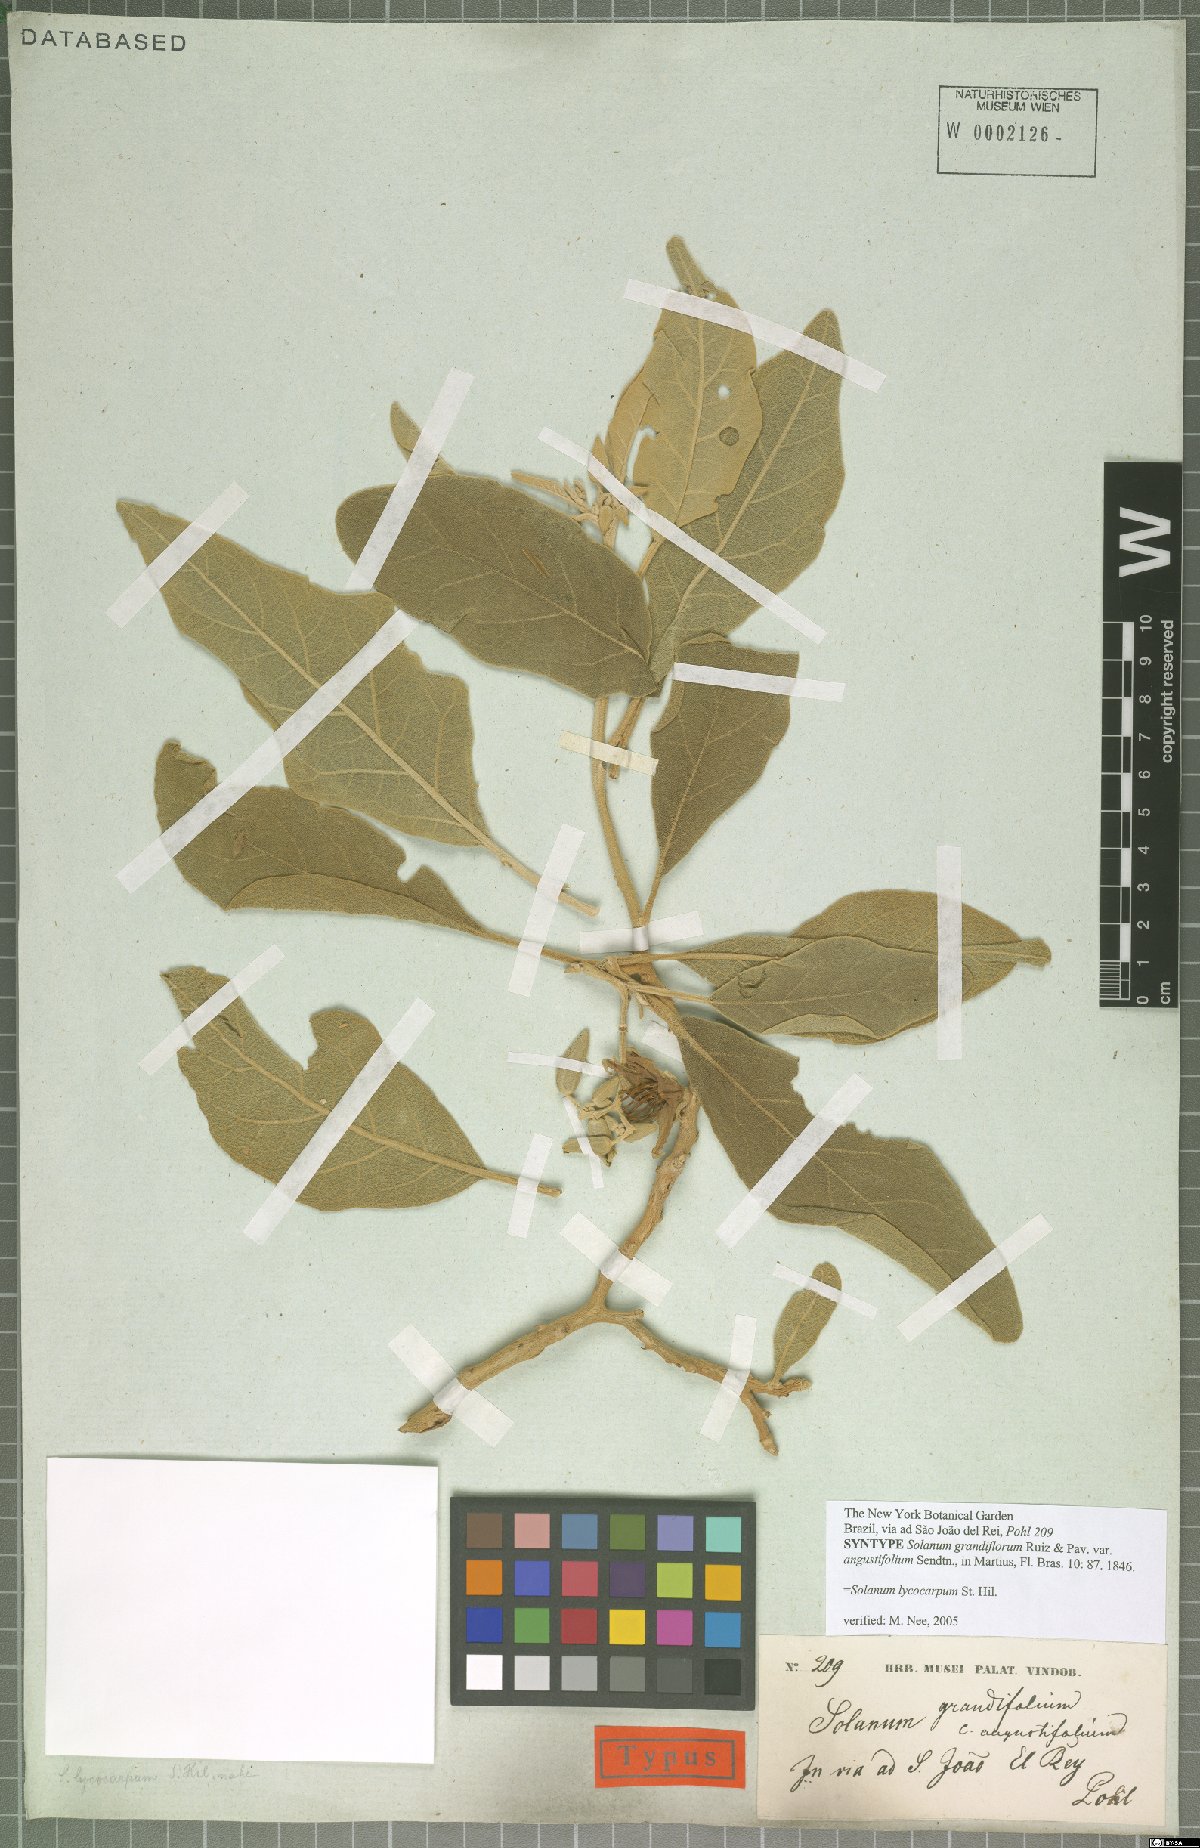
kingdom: Plantae
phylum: Tracheophyta
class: Magnoliopsida
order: Solanales
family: Solanaceae
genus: Solanum
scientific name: Solanum lycocarpum
